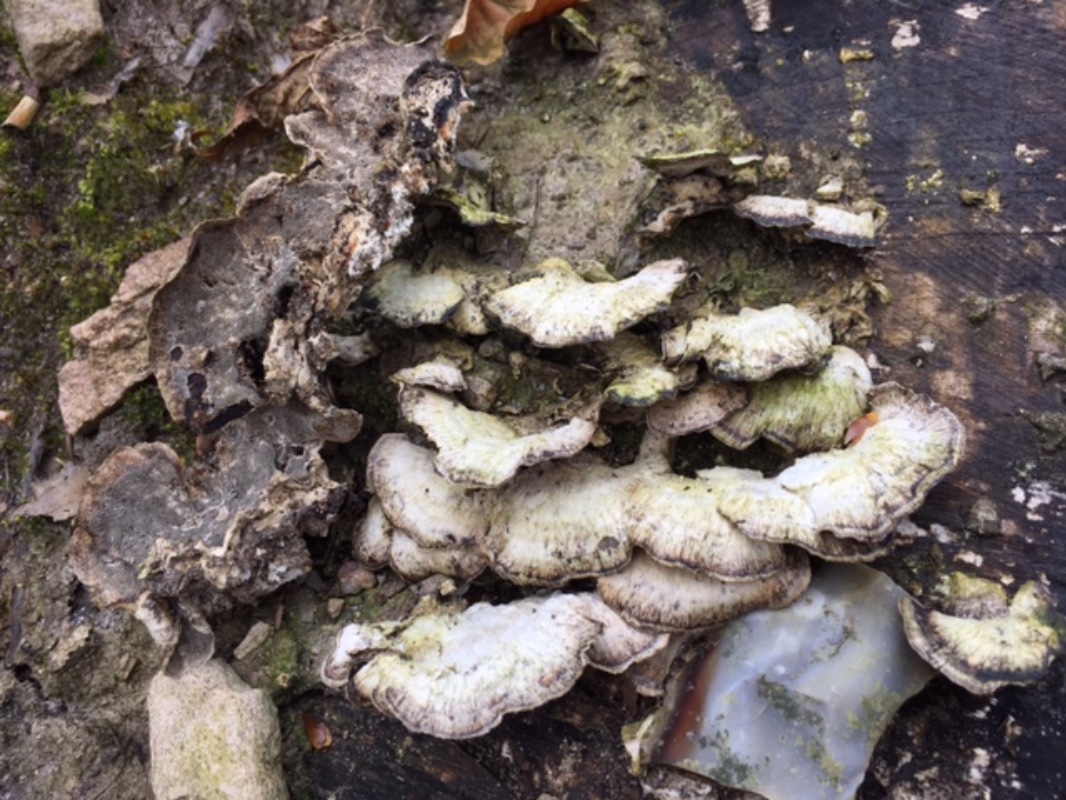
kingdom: Fungi
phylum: Basidiomycota
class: Agaricomycetes
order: Polyporales
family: Phanerochaetaceae
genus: Bjerkandera
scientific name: Bjerkandera adusta
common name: sveden sodporesvamp
